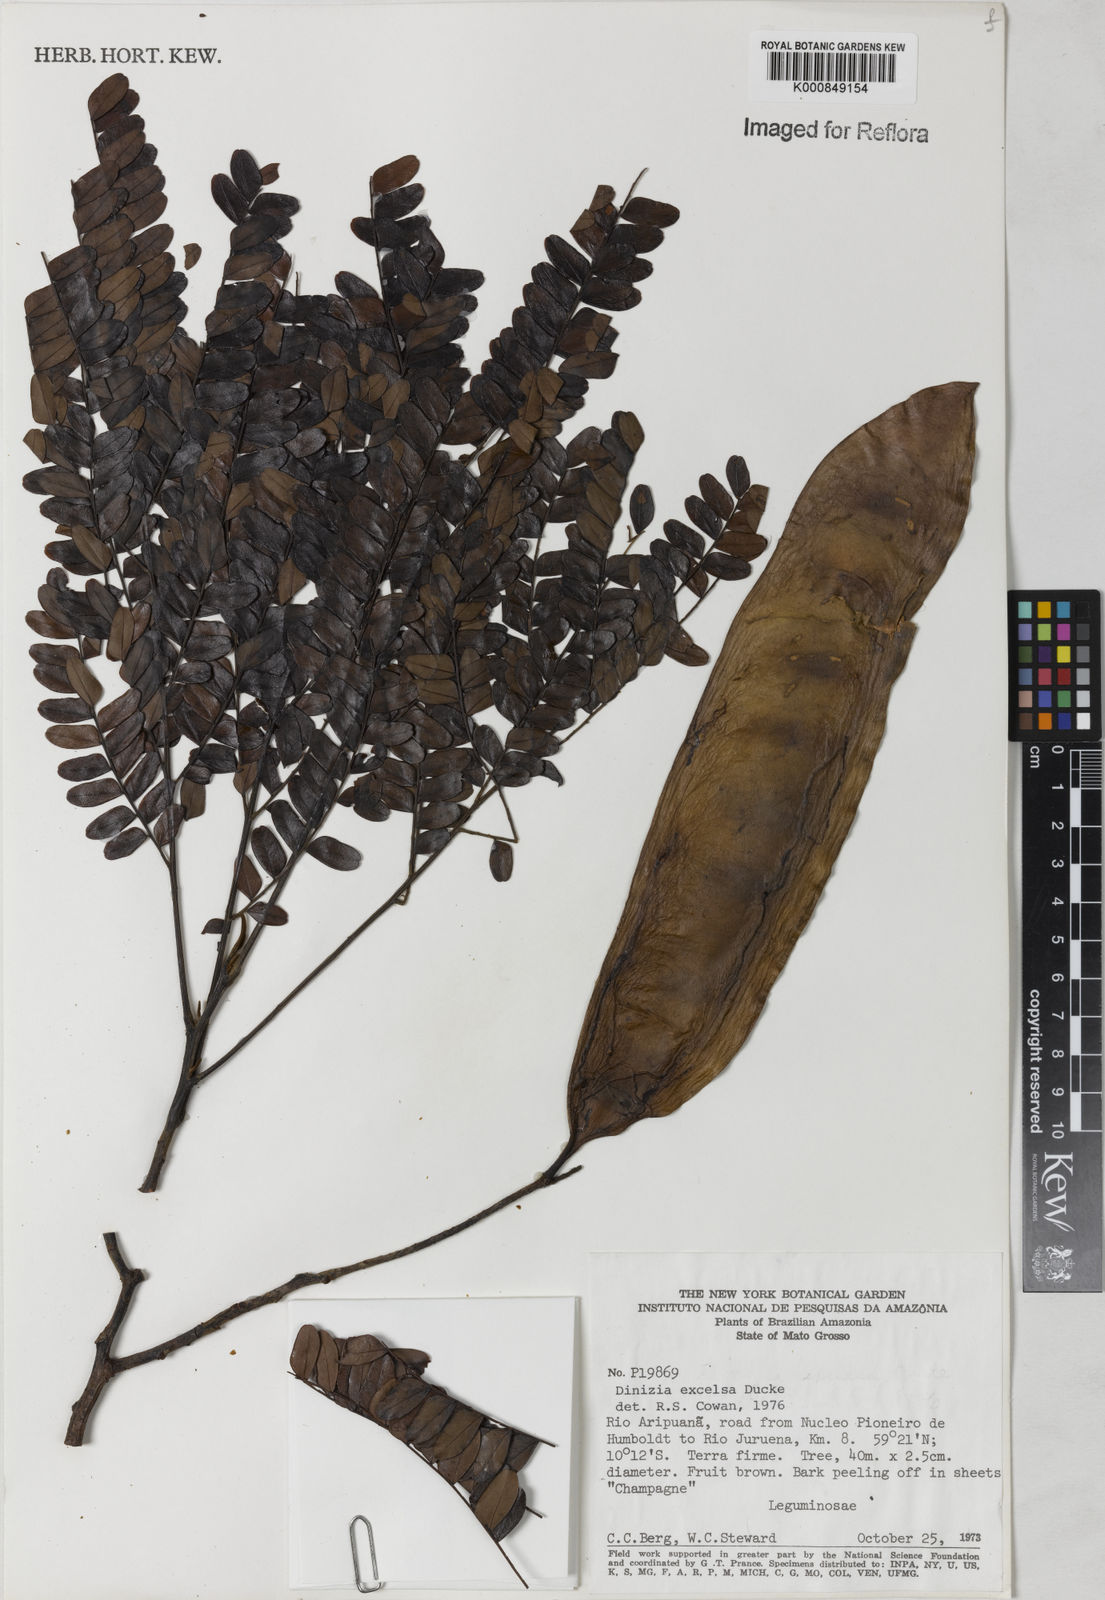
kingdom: Plantae
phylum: Tracheophyta
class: Magnoliopsida
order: Fabales
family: Fabaceae
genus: Dinizia
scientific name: Dinizia excelsa
